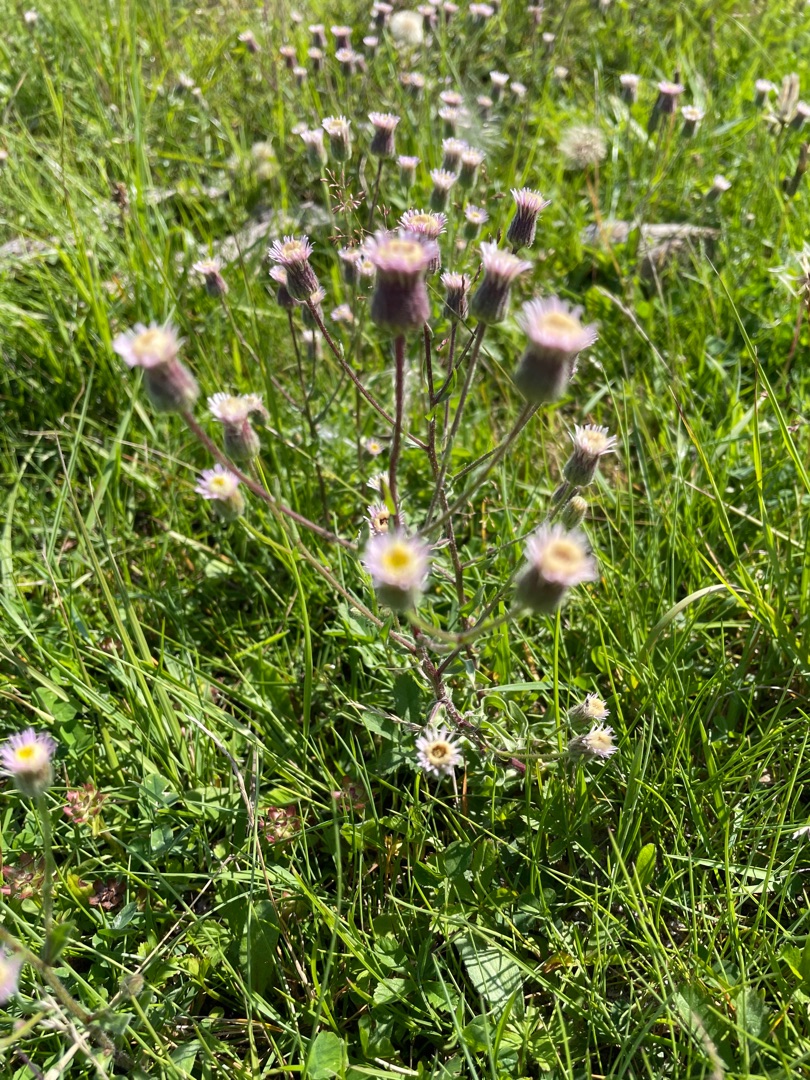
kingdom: Plantae
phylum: Tracheophyta
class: Magnoliopsida
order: Asterales
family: Asteraceae
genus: Erigeron
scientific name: Erigeron muralis
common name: Vreden bakkestjerne
